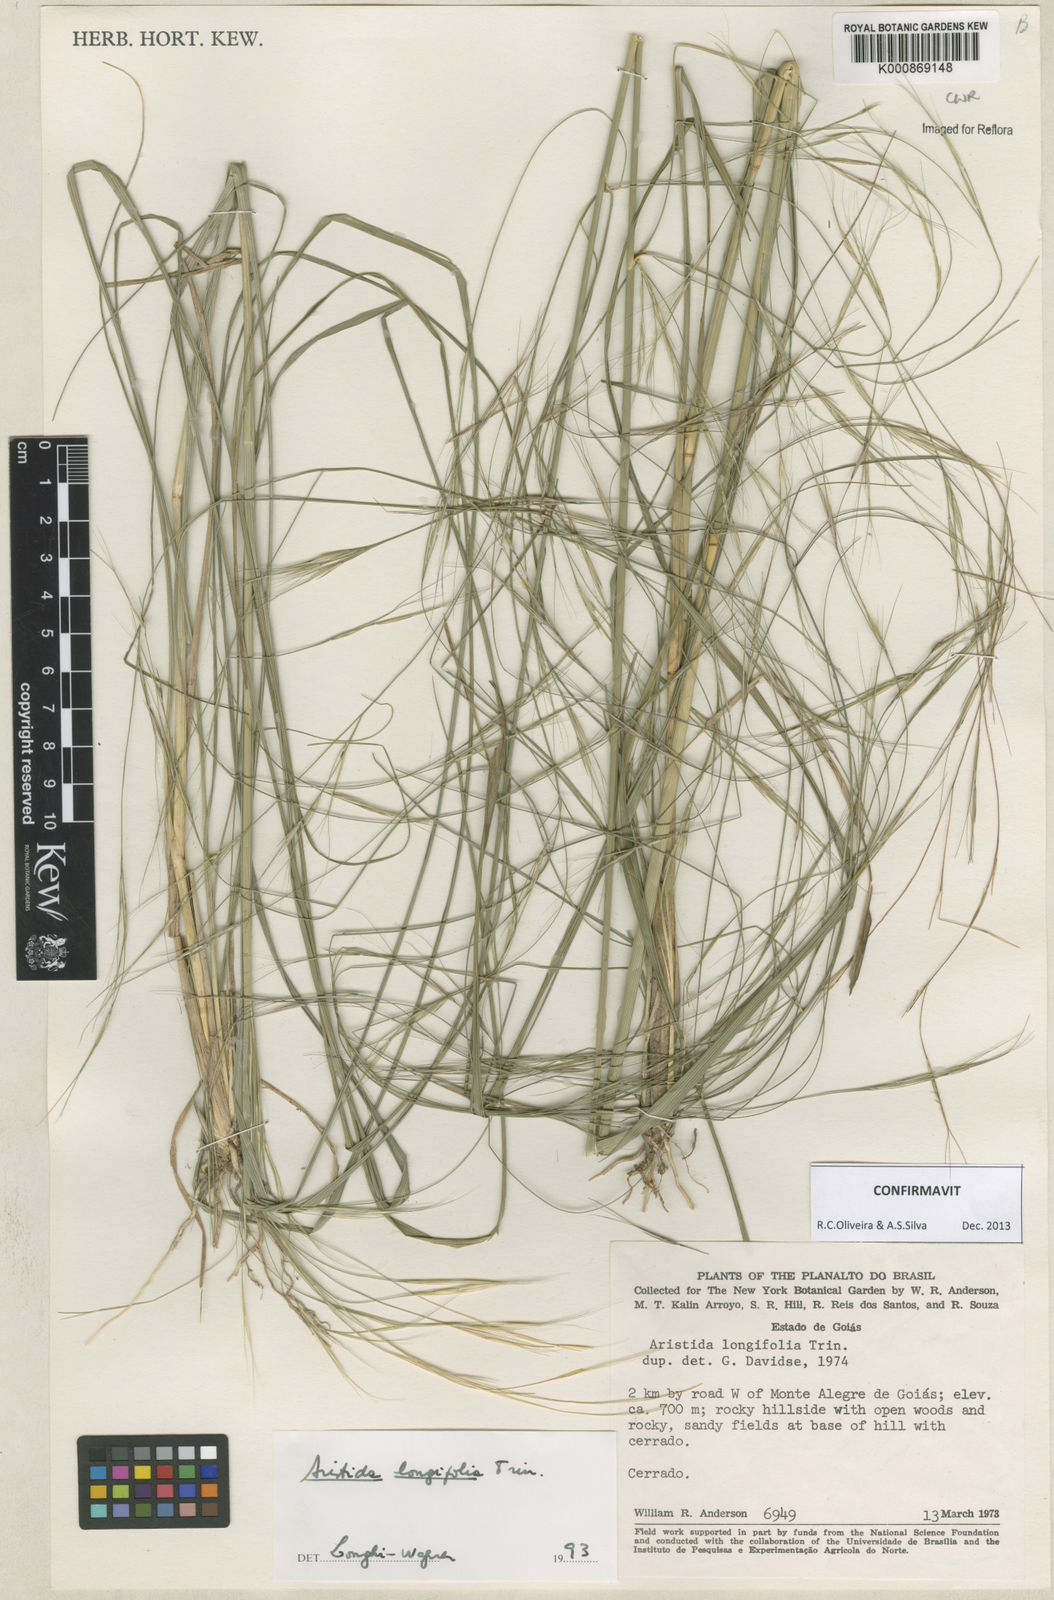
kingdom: Plantae
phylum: Tracheophyta
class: Liliopsida
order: Poales
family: Poaceae
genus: Aristida
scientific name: Aristida longifolia
